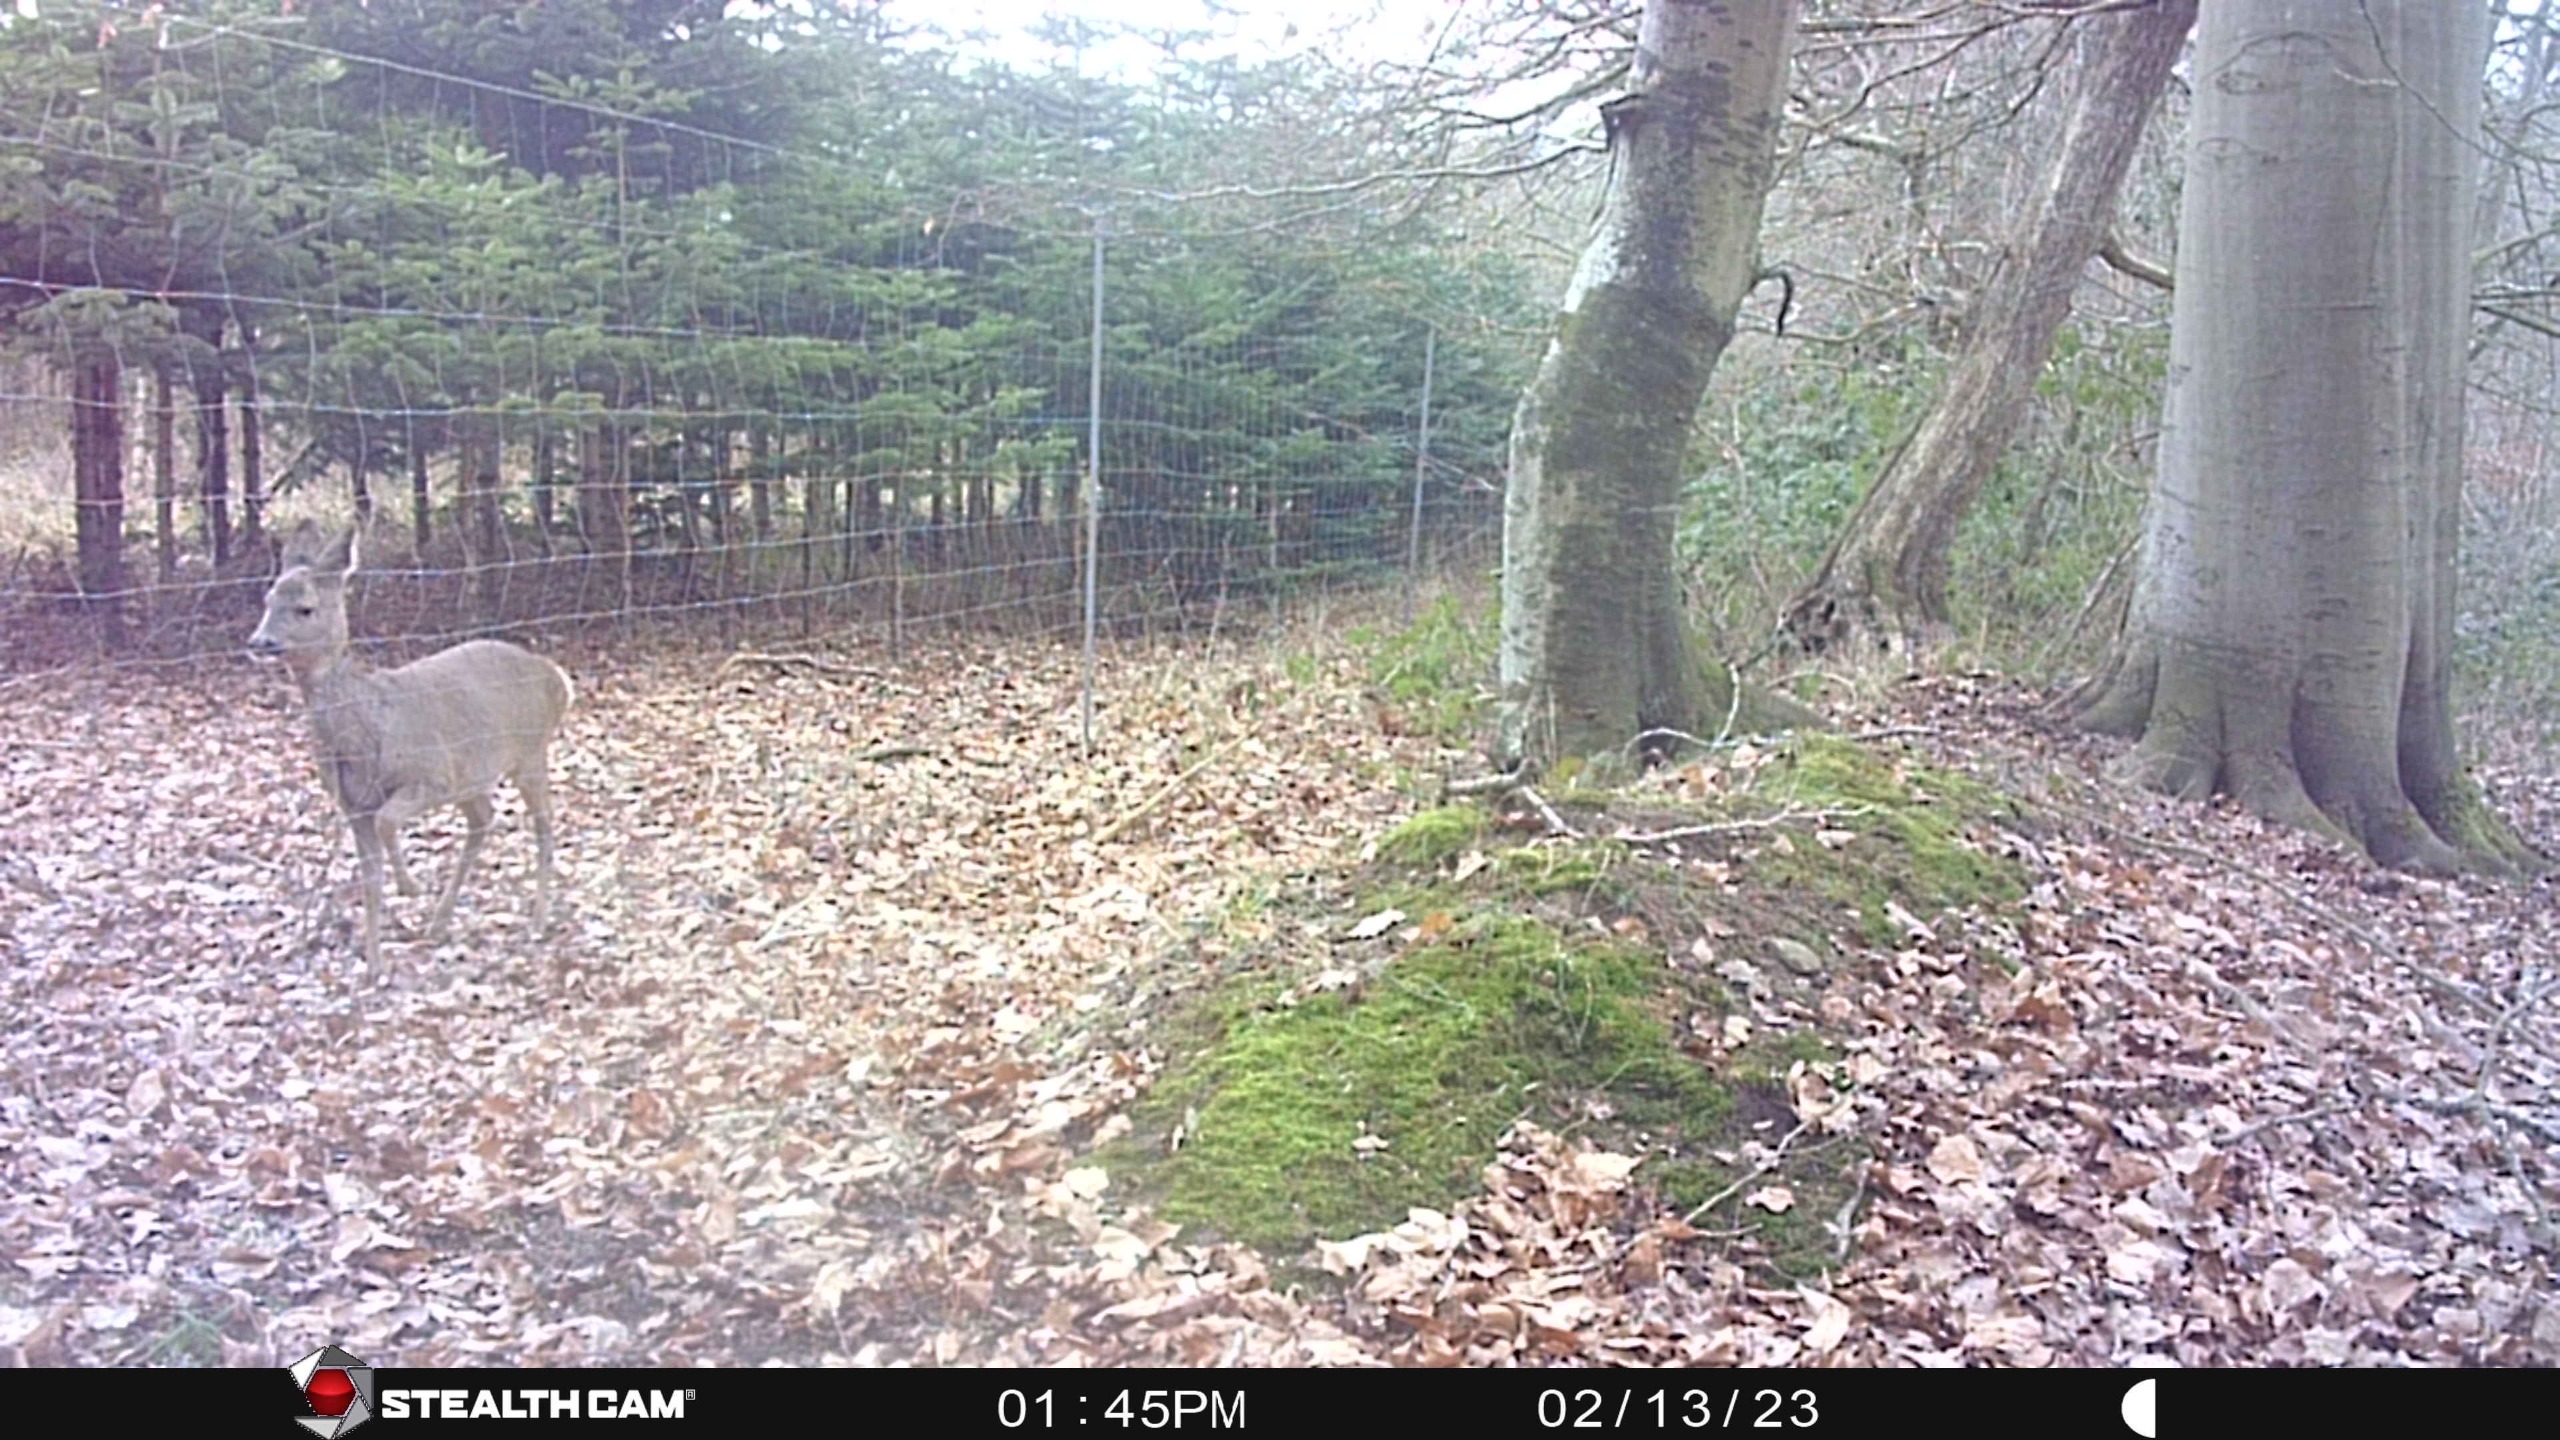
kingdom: Animalia
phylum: Chordata
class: Mammalia
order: Artiodactyla
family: Cervidae
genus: Capreolus
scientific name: Capreolus capreolus
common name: Rådyr
